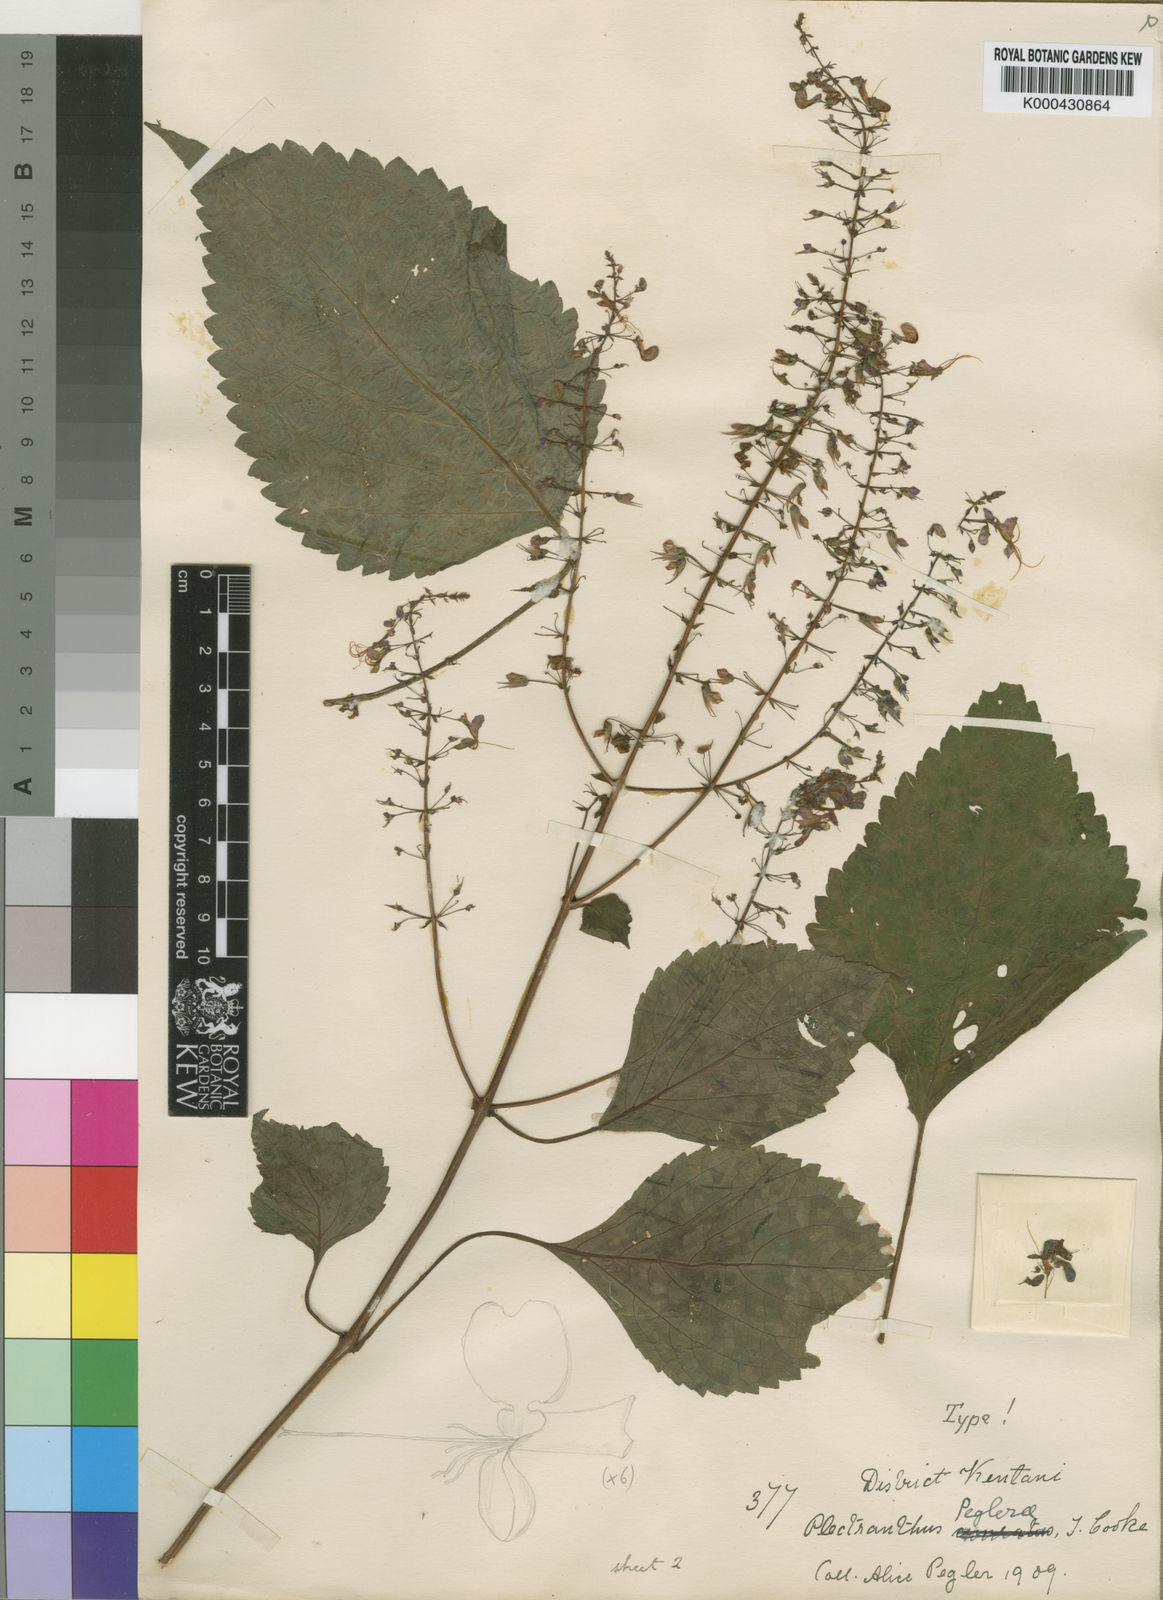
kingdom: Plantae
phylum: Tracheophyta
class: Magnoliopsida
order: Lamiales
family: Lamiaceae
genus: Plectranthus
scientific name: Plectranthus
